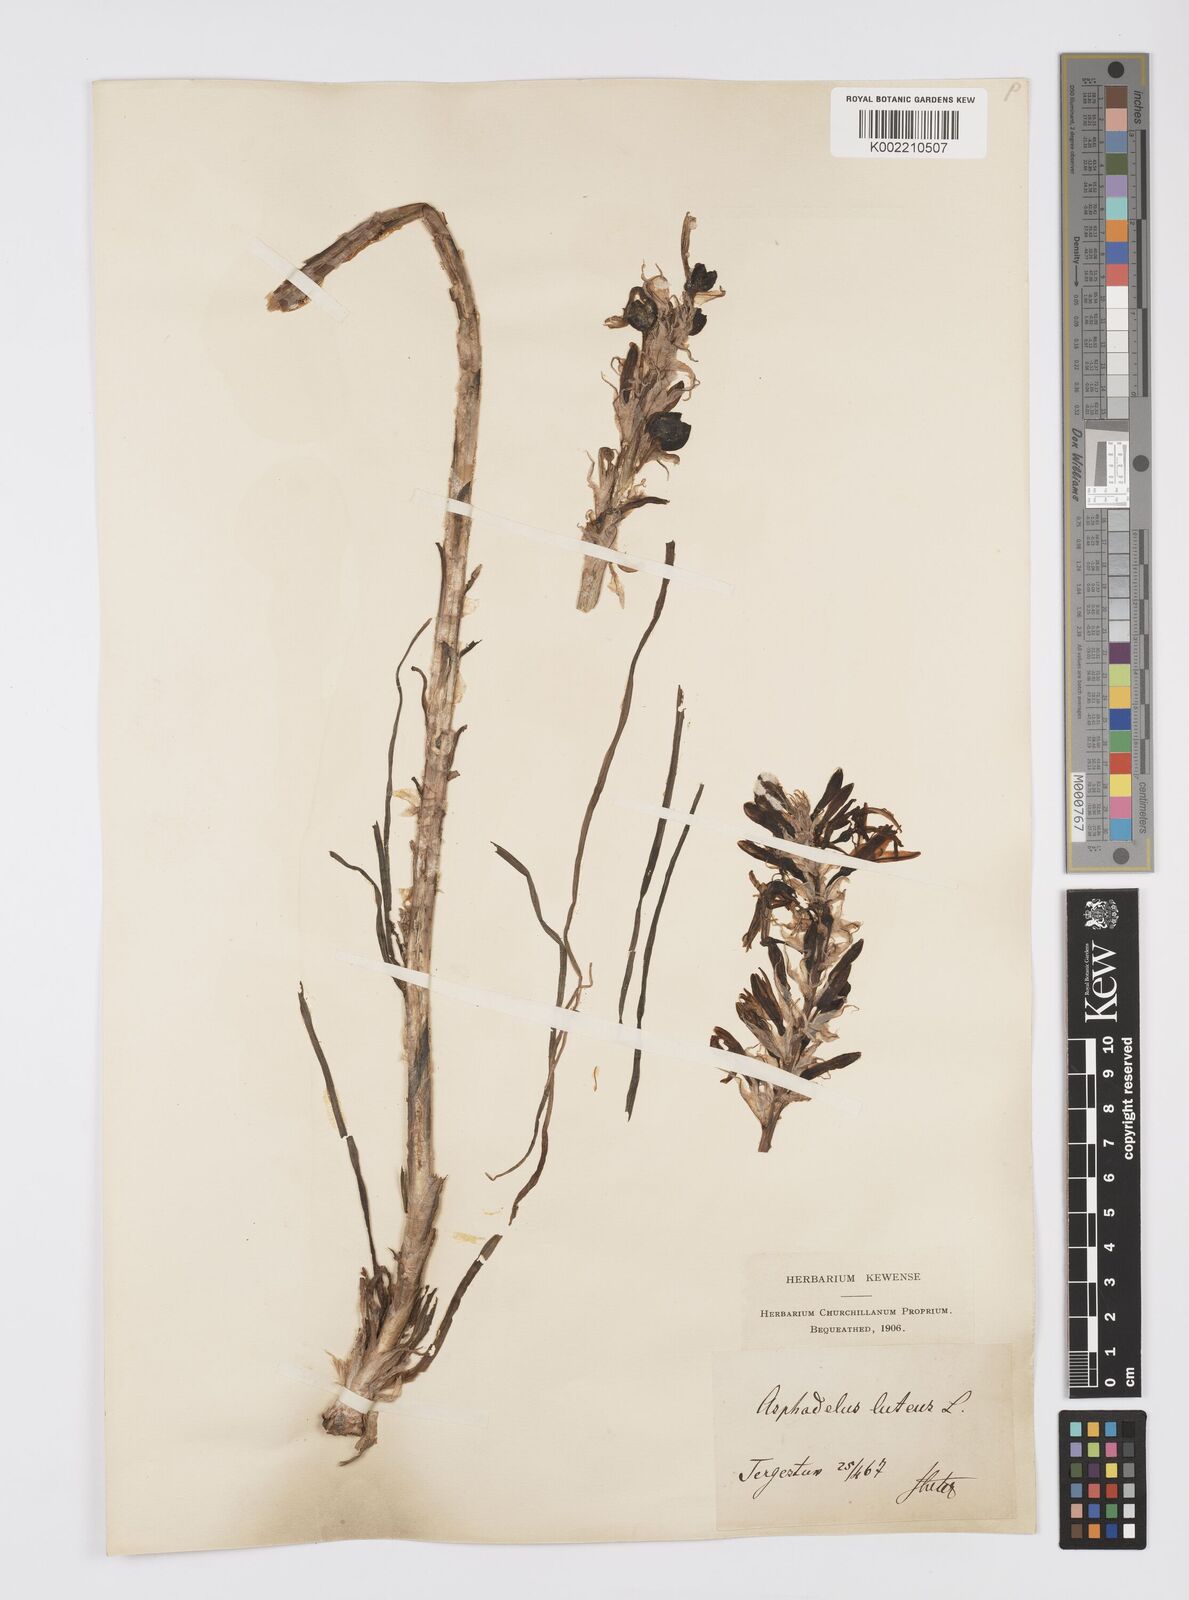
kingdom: Plantae
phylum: Tracheophyta
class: Liliopsida
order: Asparagales
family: Asphodelaceae
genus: Asphodeline
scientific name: Asphodeline lutea
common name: Yellow asphodel
